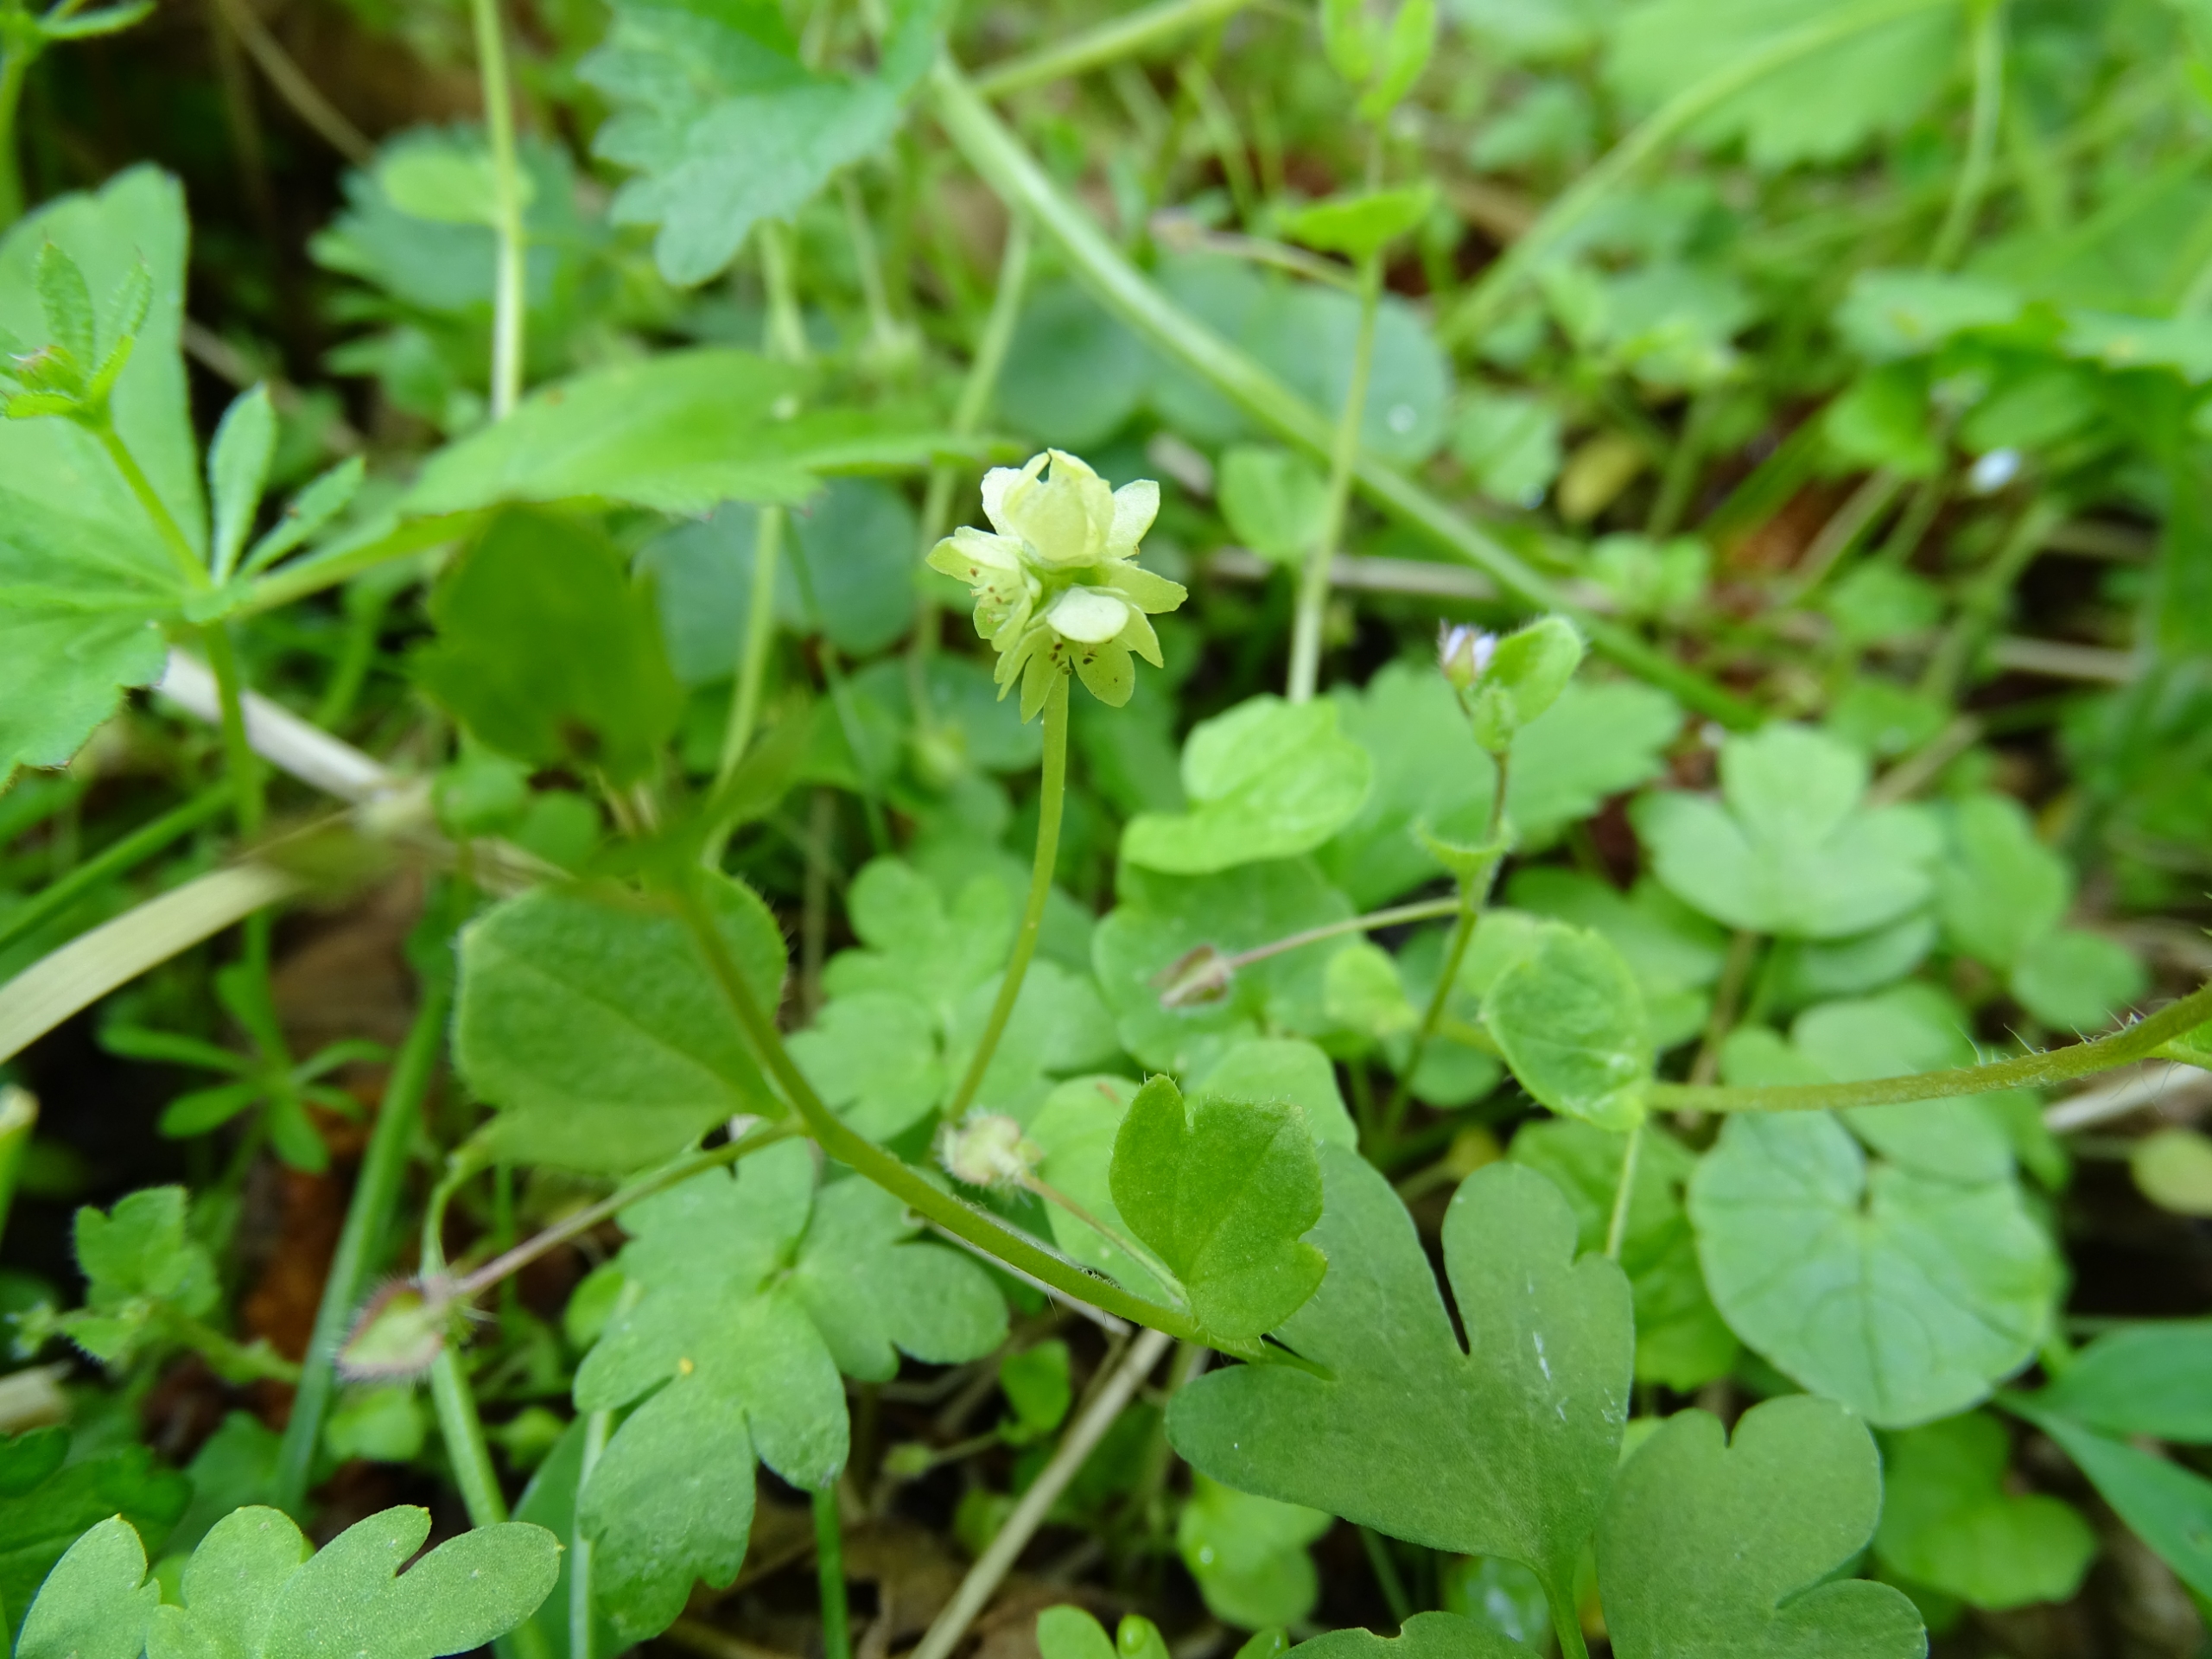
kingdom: Plantae
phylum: Tracheophyta
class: Magnoliopsida
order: Dipsacales
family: Viburnaceae
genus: Adoxa
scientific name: Adoxa moschatellina
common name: Desmerurt
